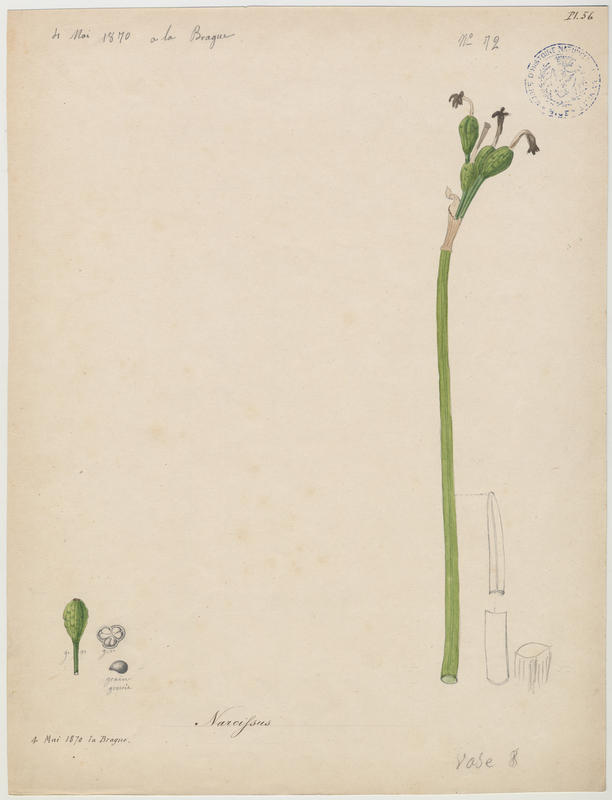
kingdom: Plantae
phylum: Tracheophyta
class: Liliopsida
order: Asparagales
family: Amaryllidaceae
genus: Narcissus
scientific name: Narcissus tazetta
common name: Bunch-flowered daffodil
